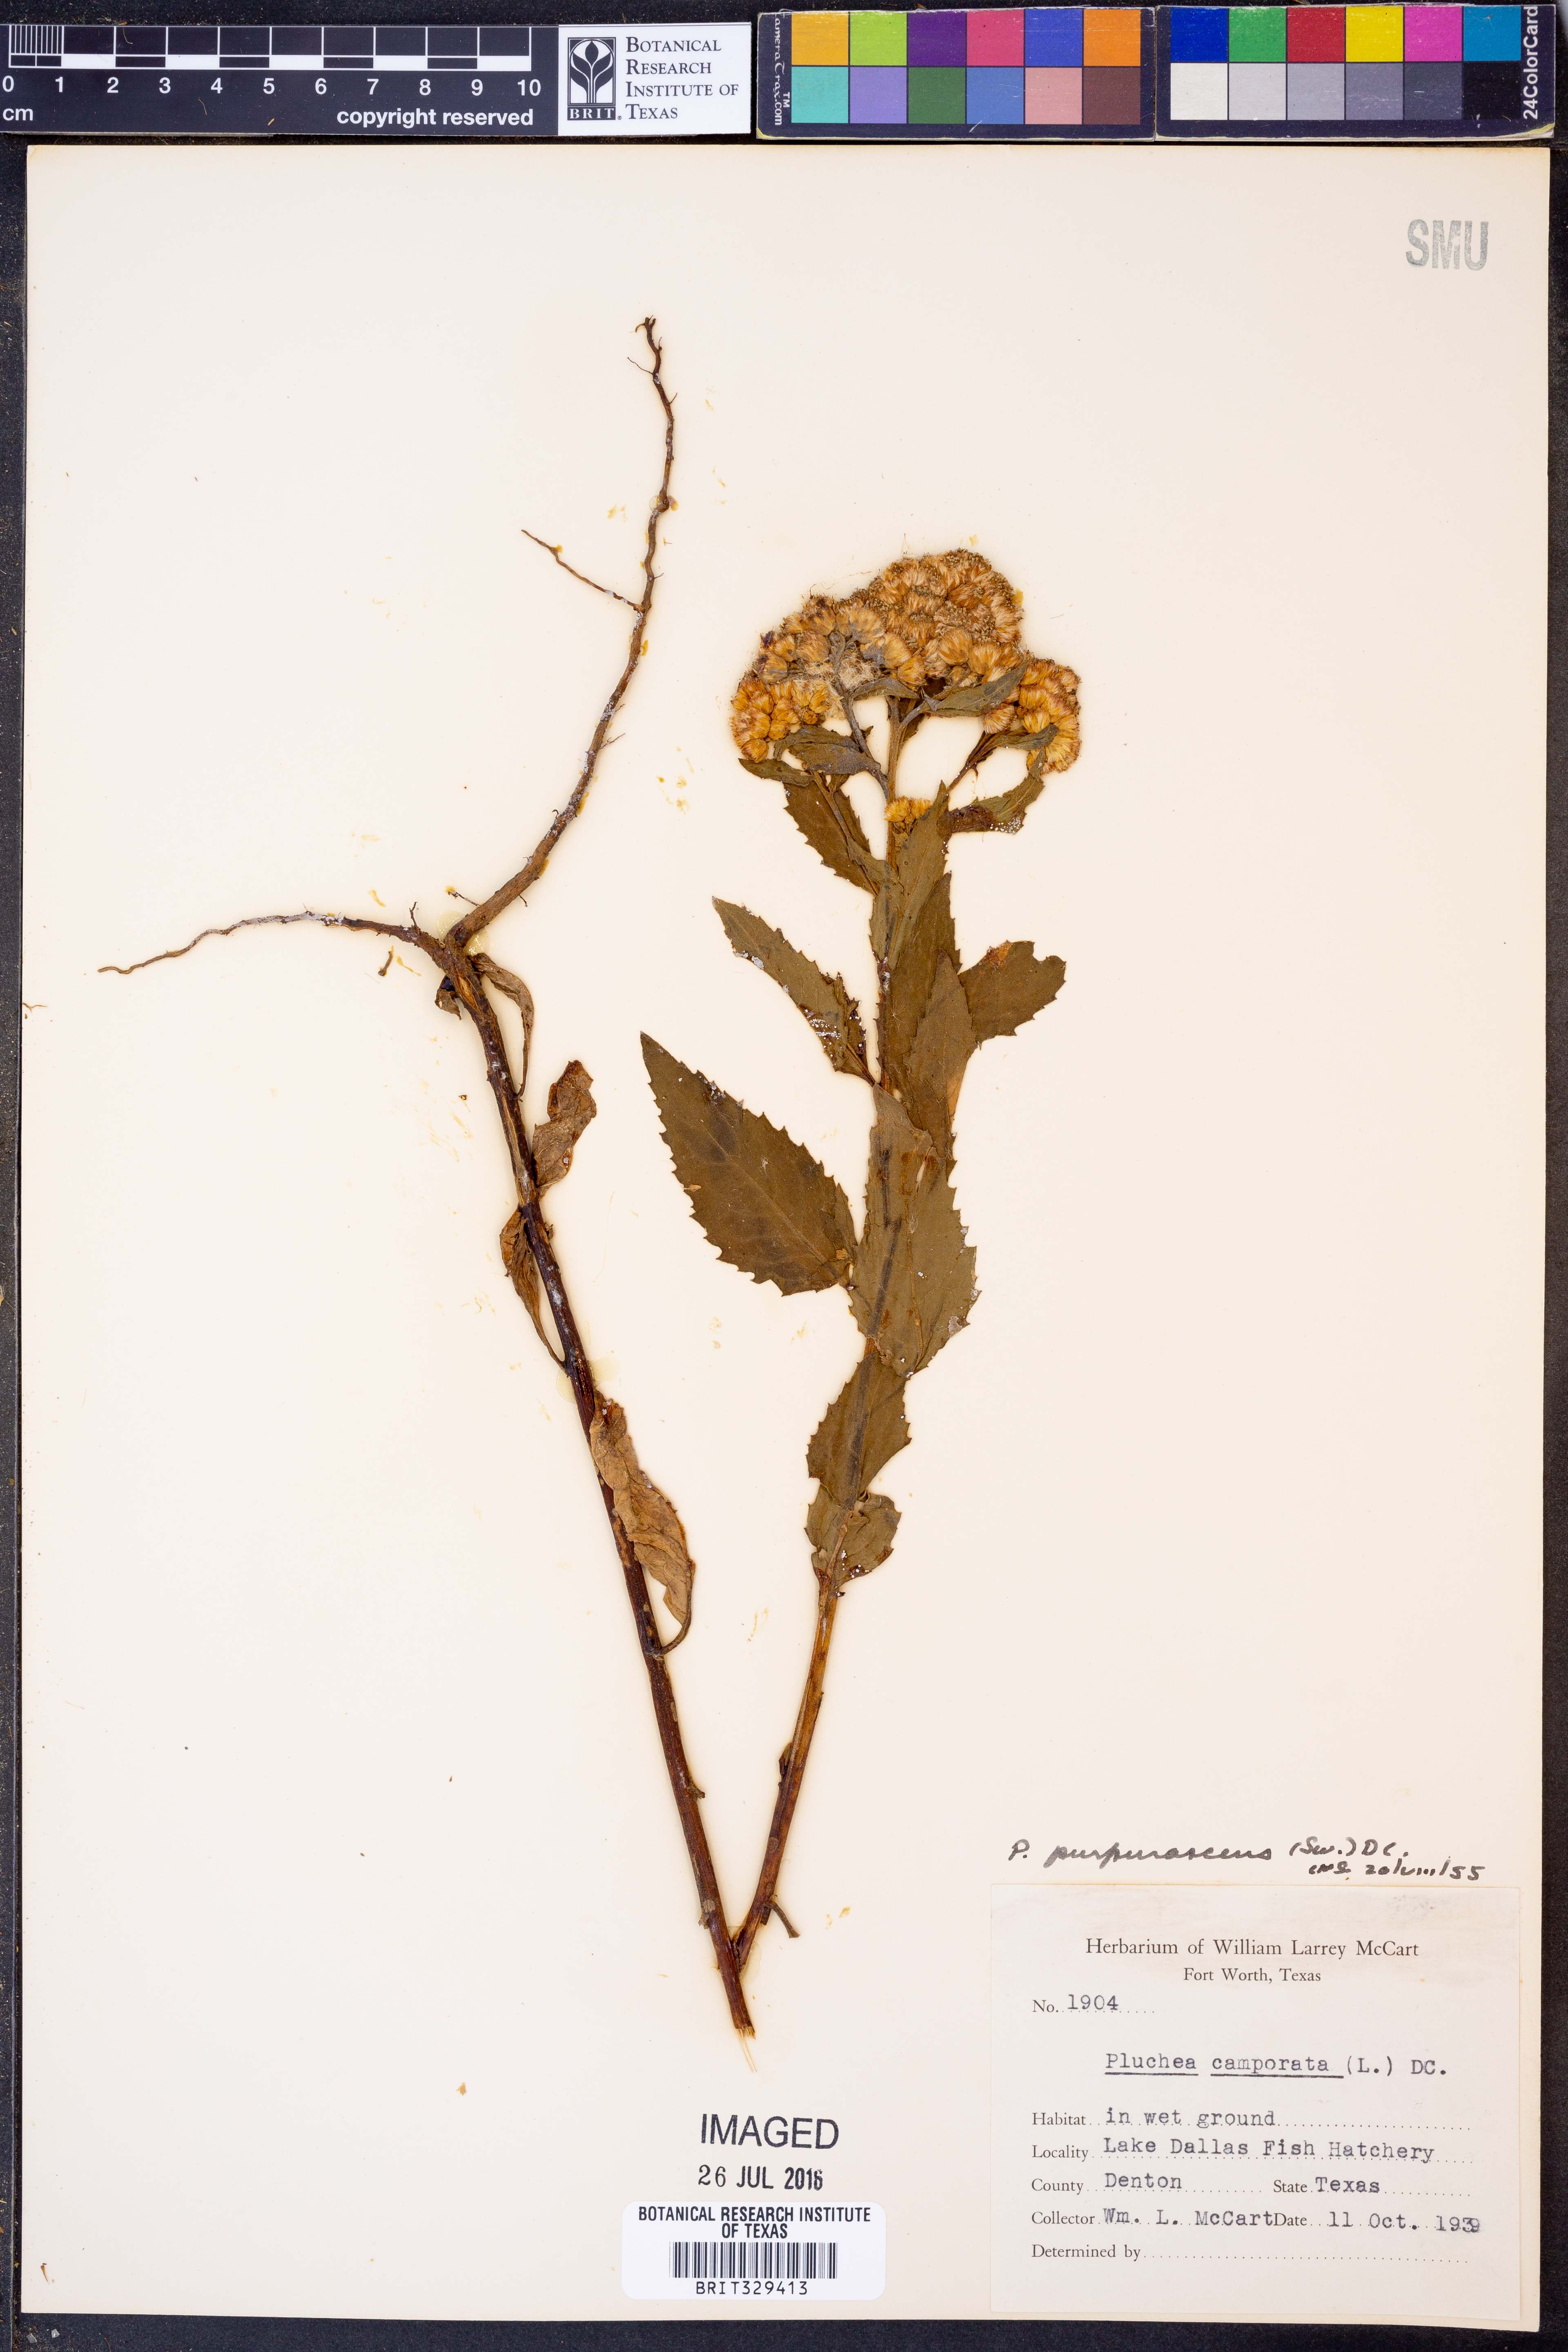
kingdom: Plantae
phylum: Tracheophyta
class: Magnoliopsida
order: Asterales
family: Asteraceae
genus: Pluchea
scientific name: Pluchea odorata
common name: Saltmarsh fleabane
